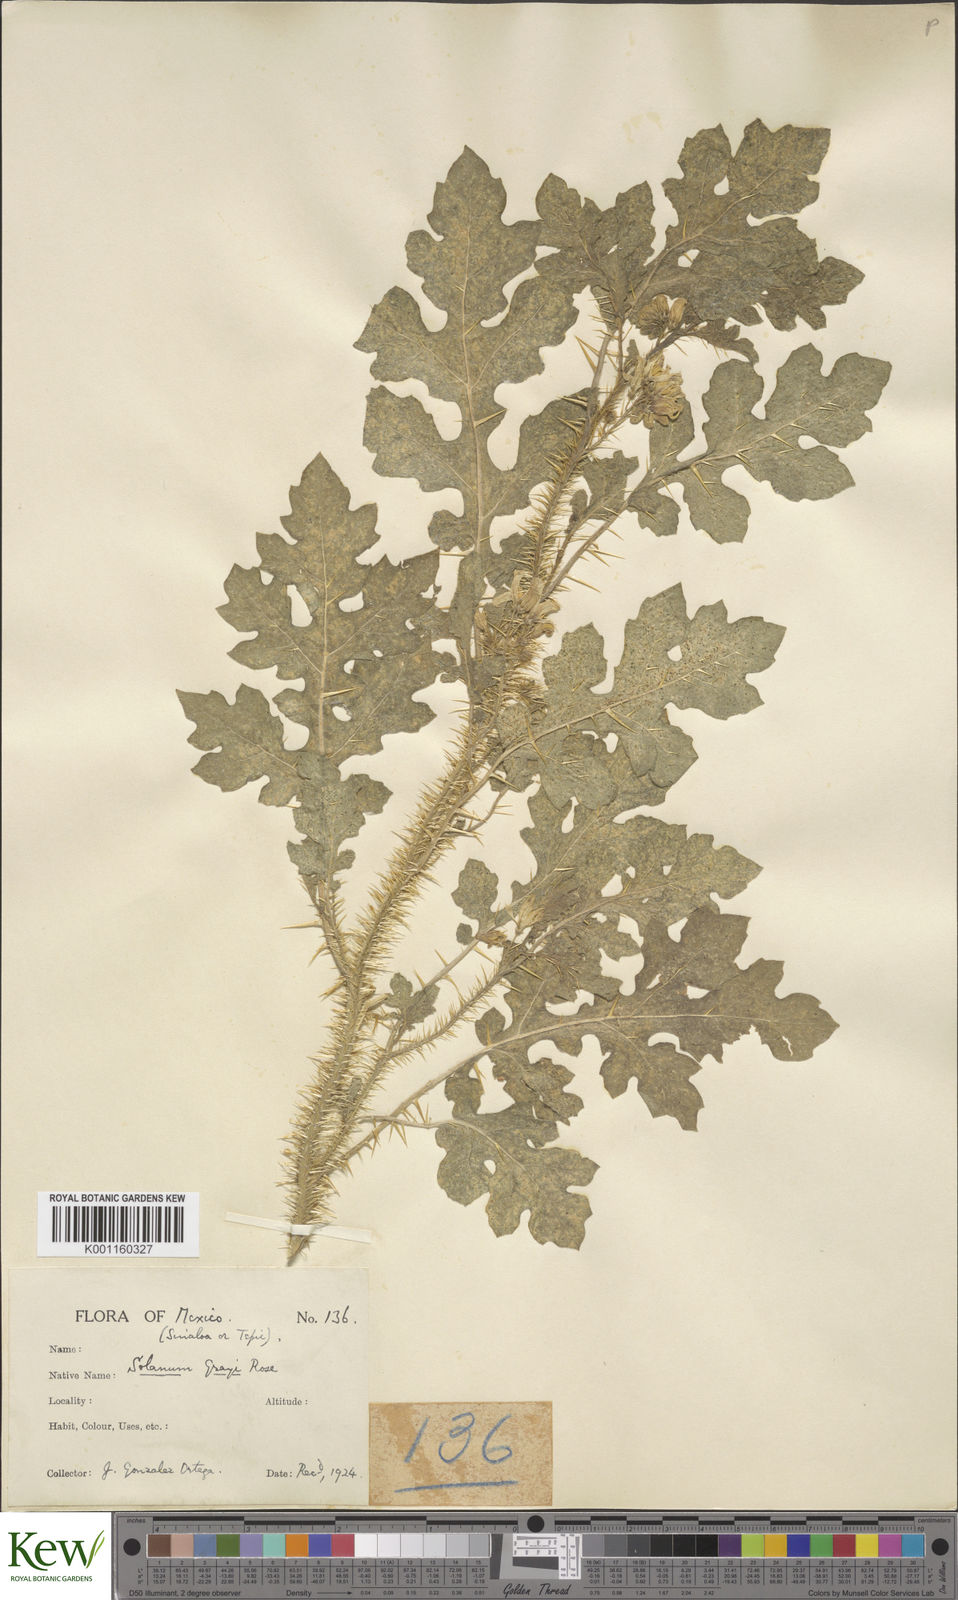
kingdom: Plantae
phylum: Tracheophyta
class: Magnoliopsida
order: Solanales
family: Solanaceae
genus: Solanum
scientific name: Solanum grayi
